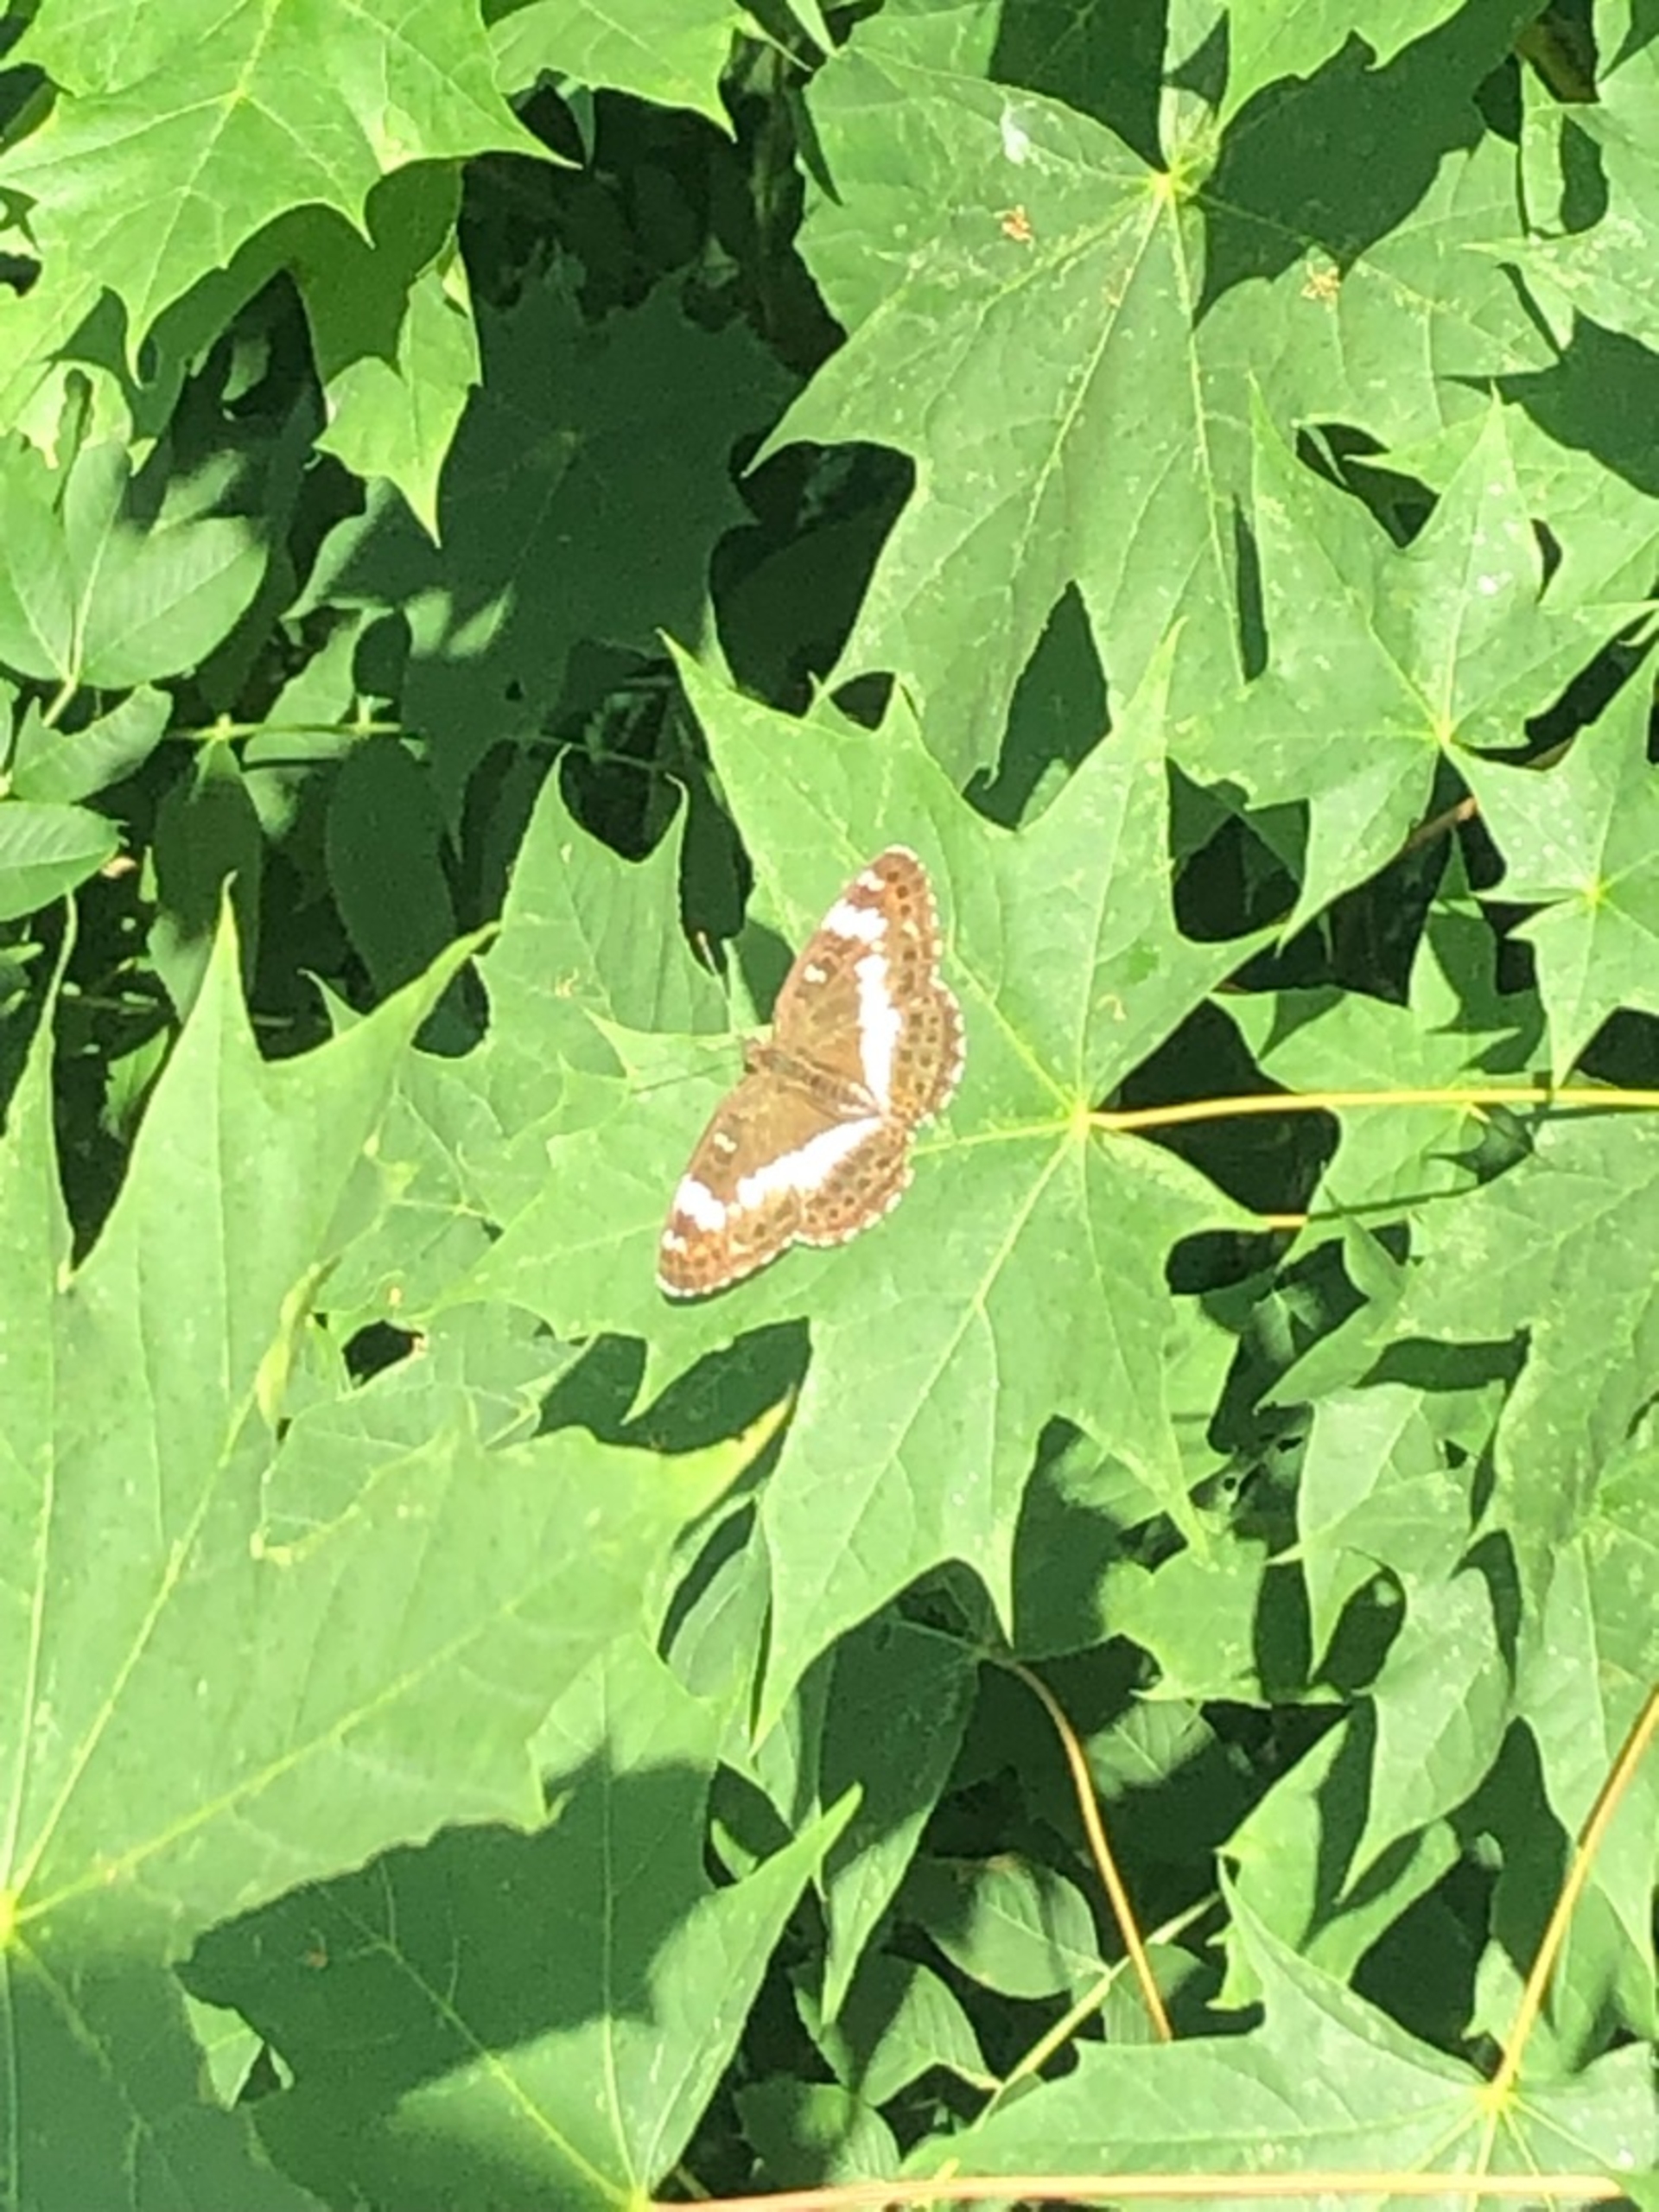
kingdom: Animalia
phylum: Arthropoda
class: Insecta
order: Lepidoptera
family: Nymphalidae
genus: Ladoga
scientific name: Ladoga camilla
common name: Hvid admiral
